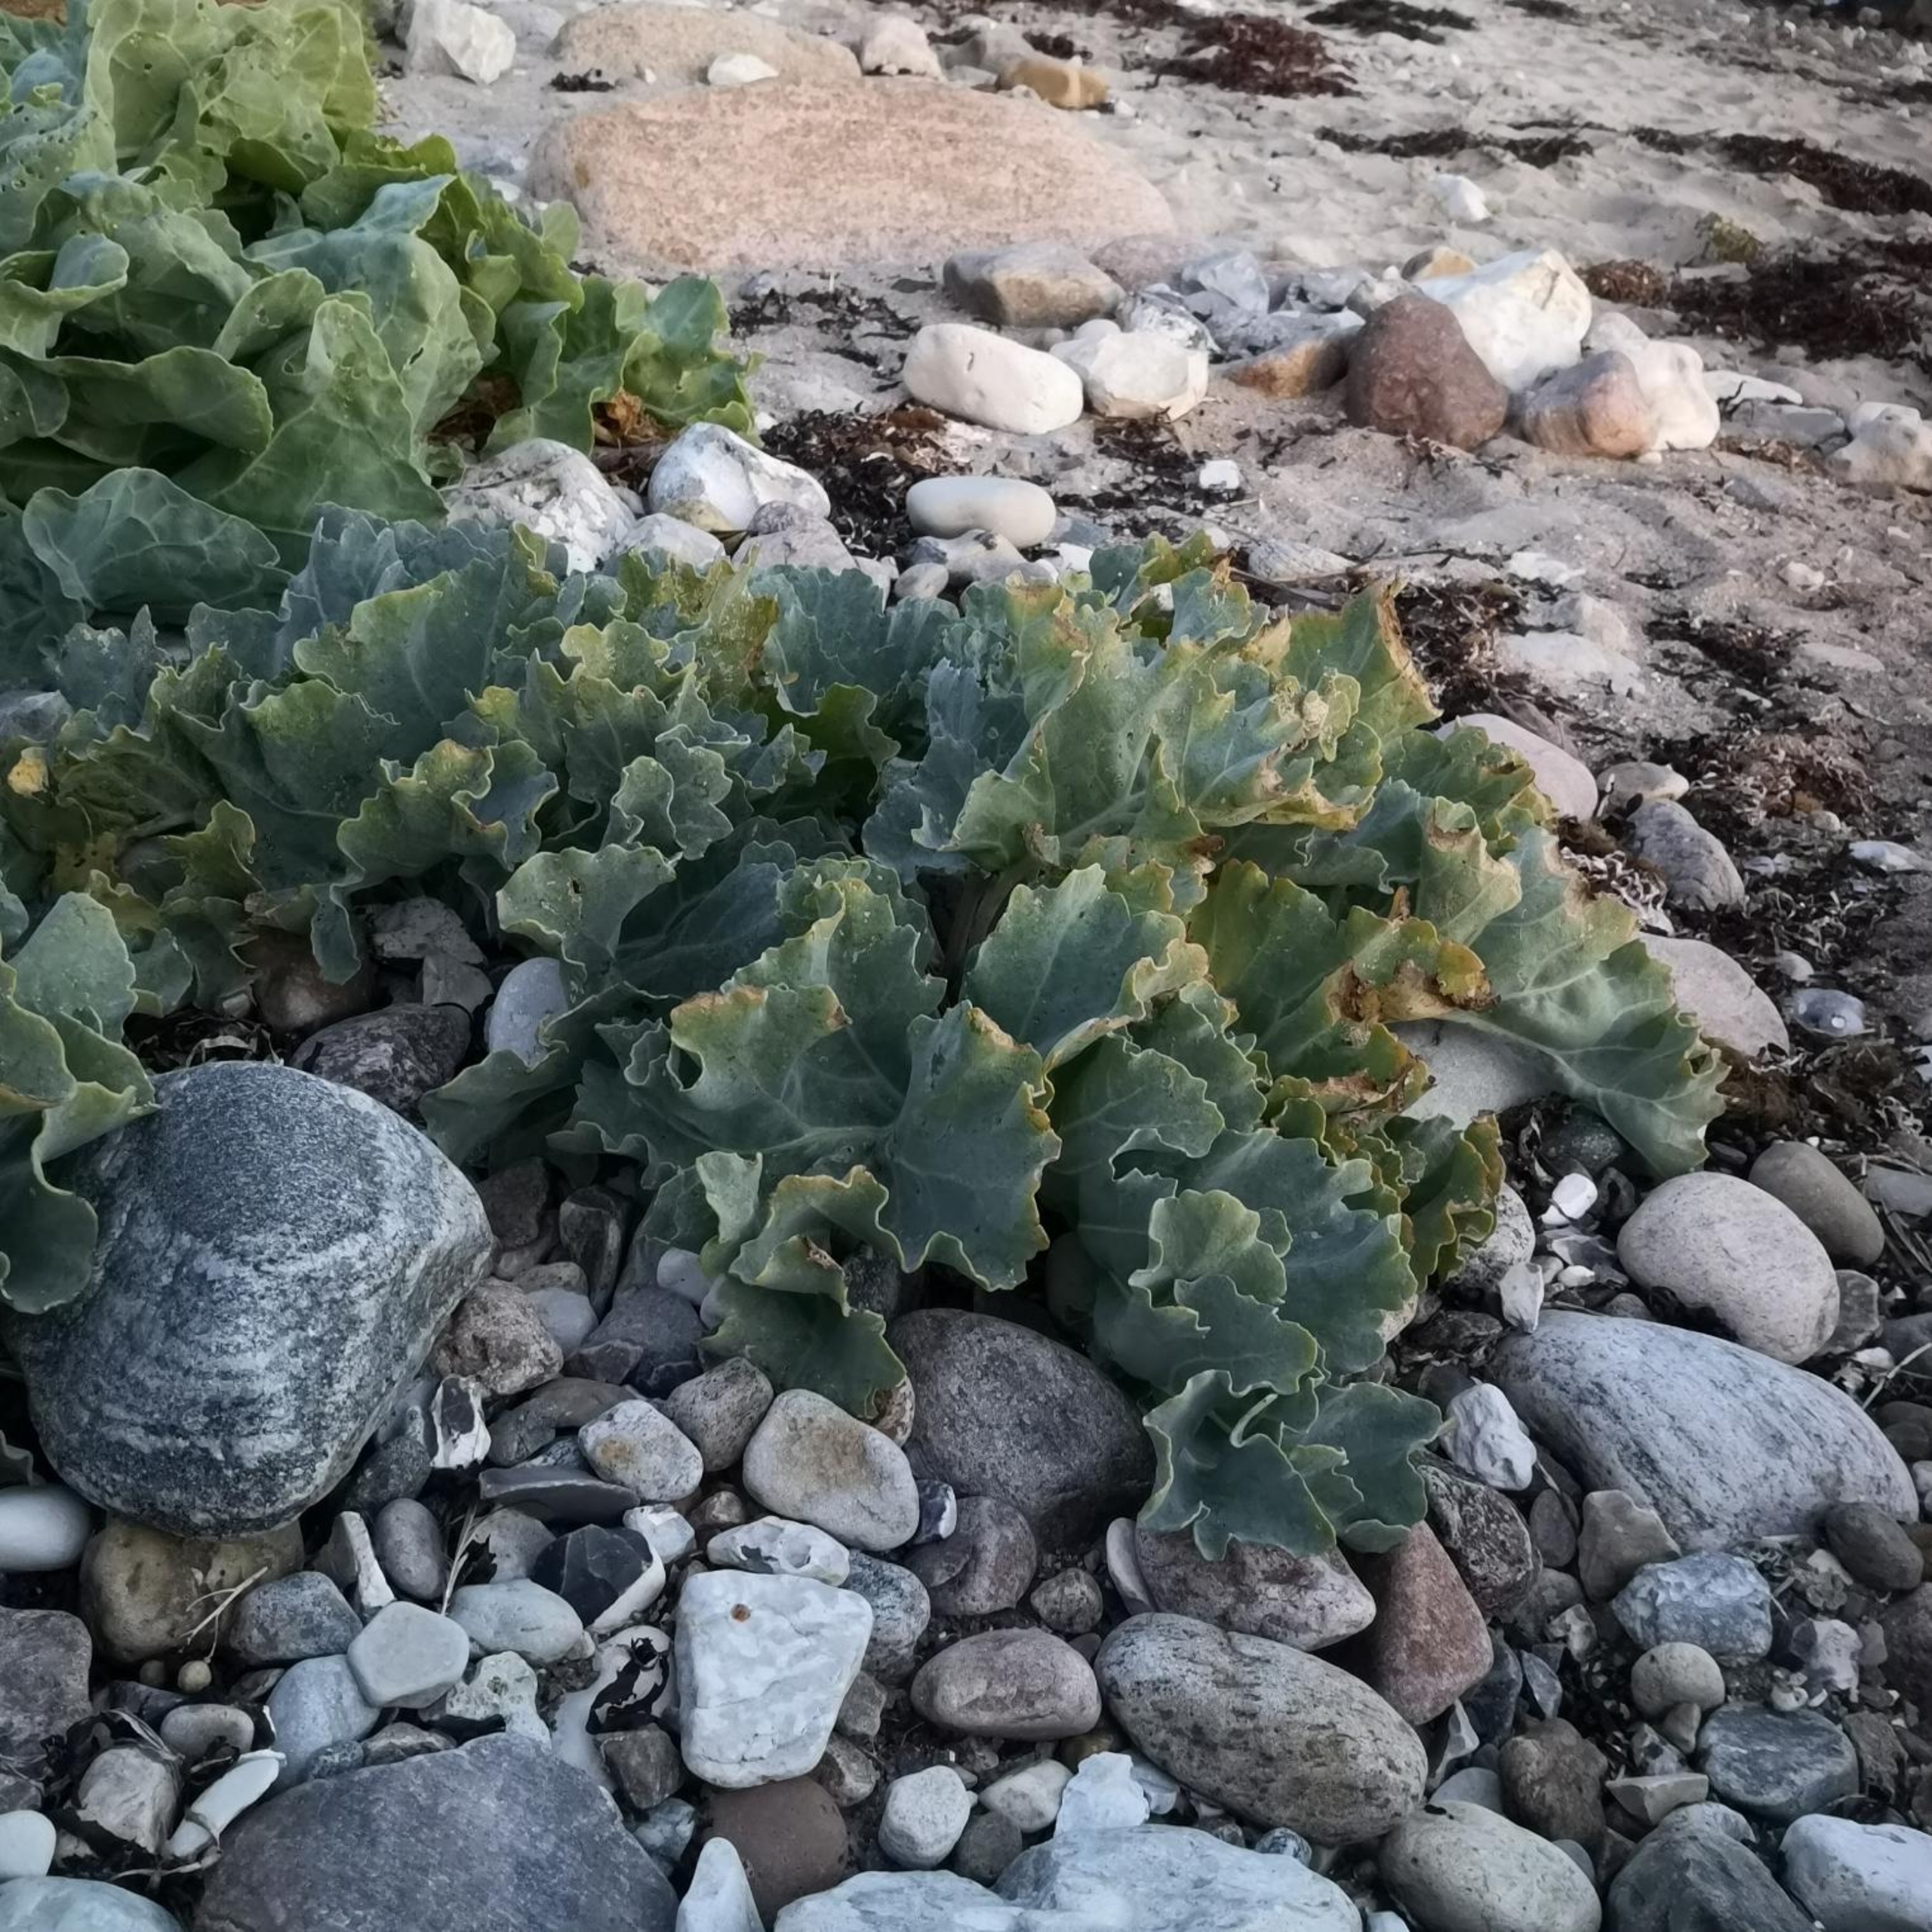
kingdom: Plantae
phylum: Tracheophyta
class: Magnoliopsida
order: Brassicales
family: Brassicaceae
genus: Crambe
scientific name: Crambe maritima
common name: Strandkål
